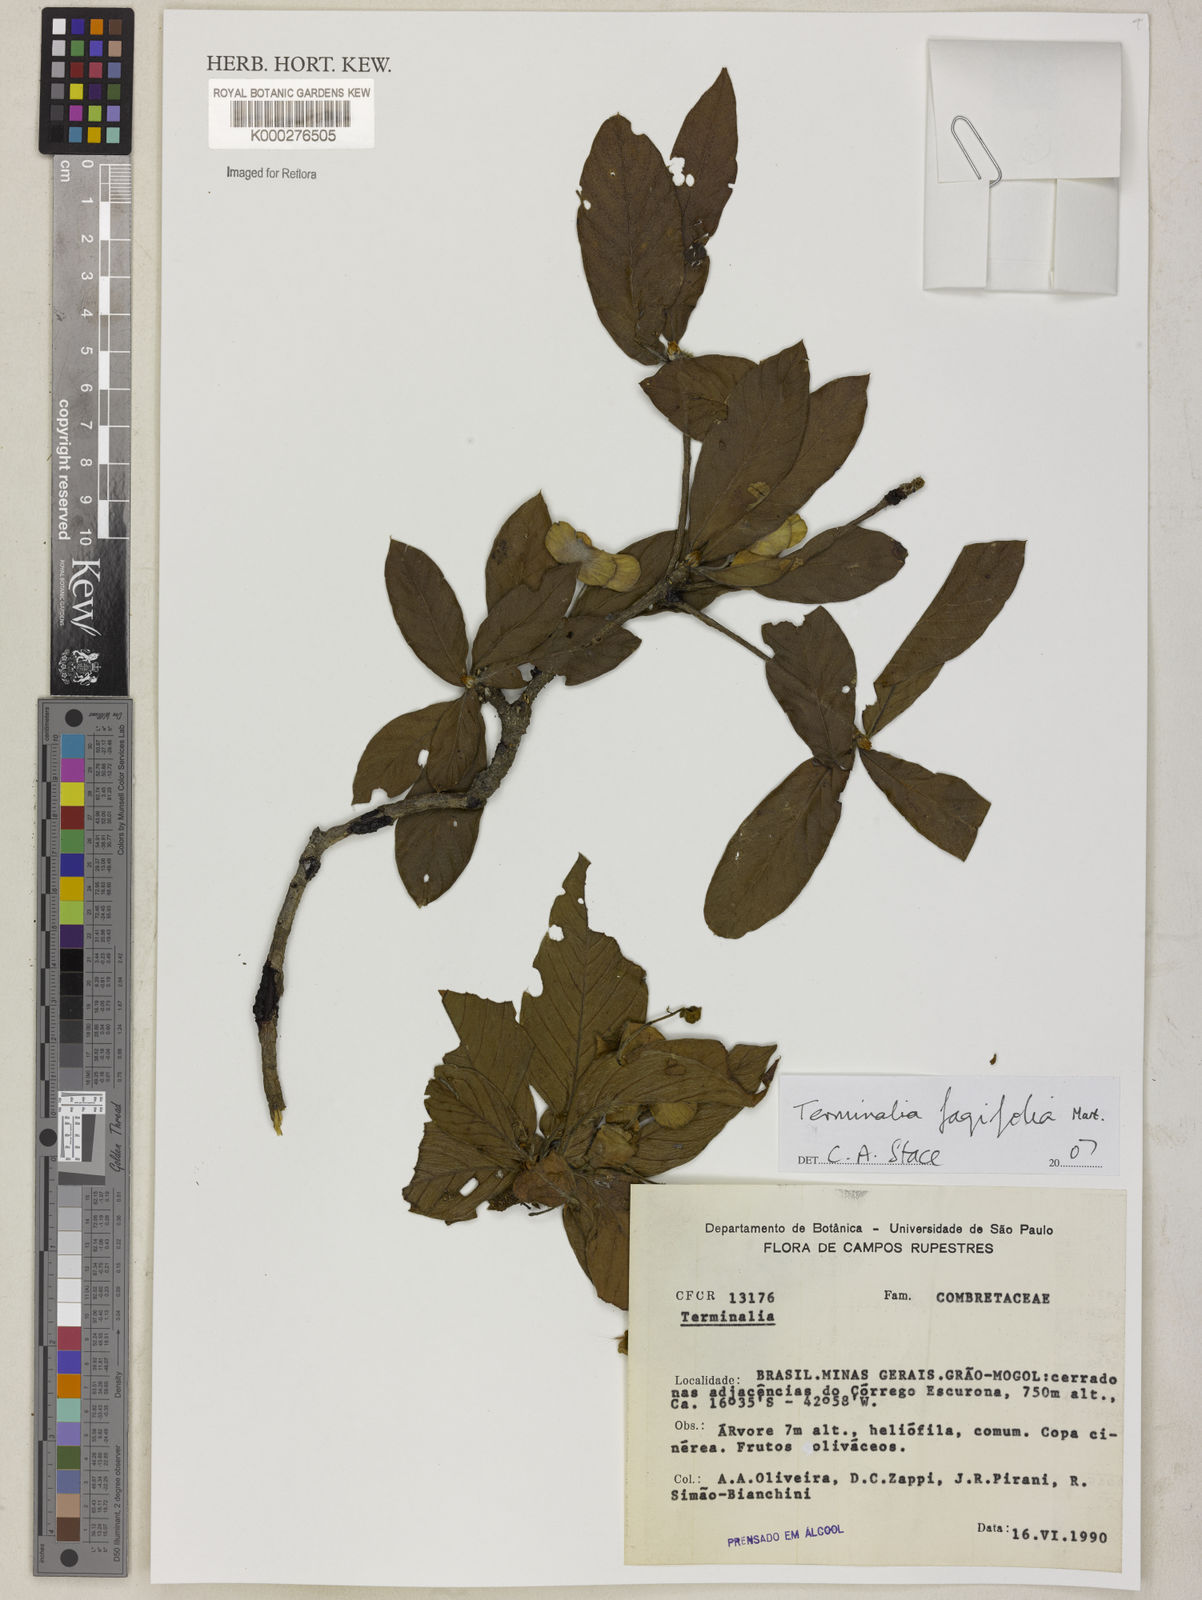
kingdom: Plantae
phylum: Tracheophyta
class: Magnoliopsida
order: Myrtales
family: Combretaceae
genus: Terminalia
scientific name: Terminalia fagifolia
